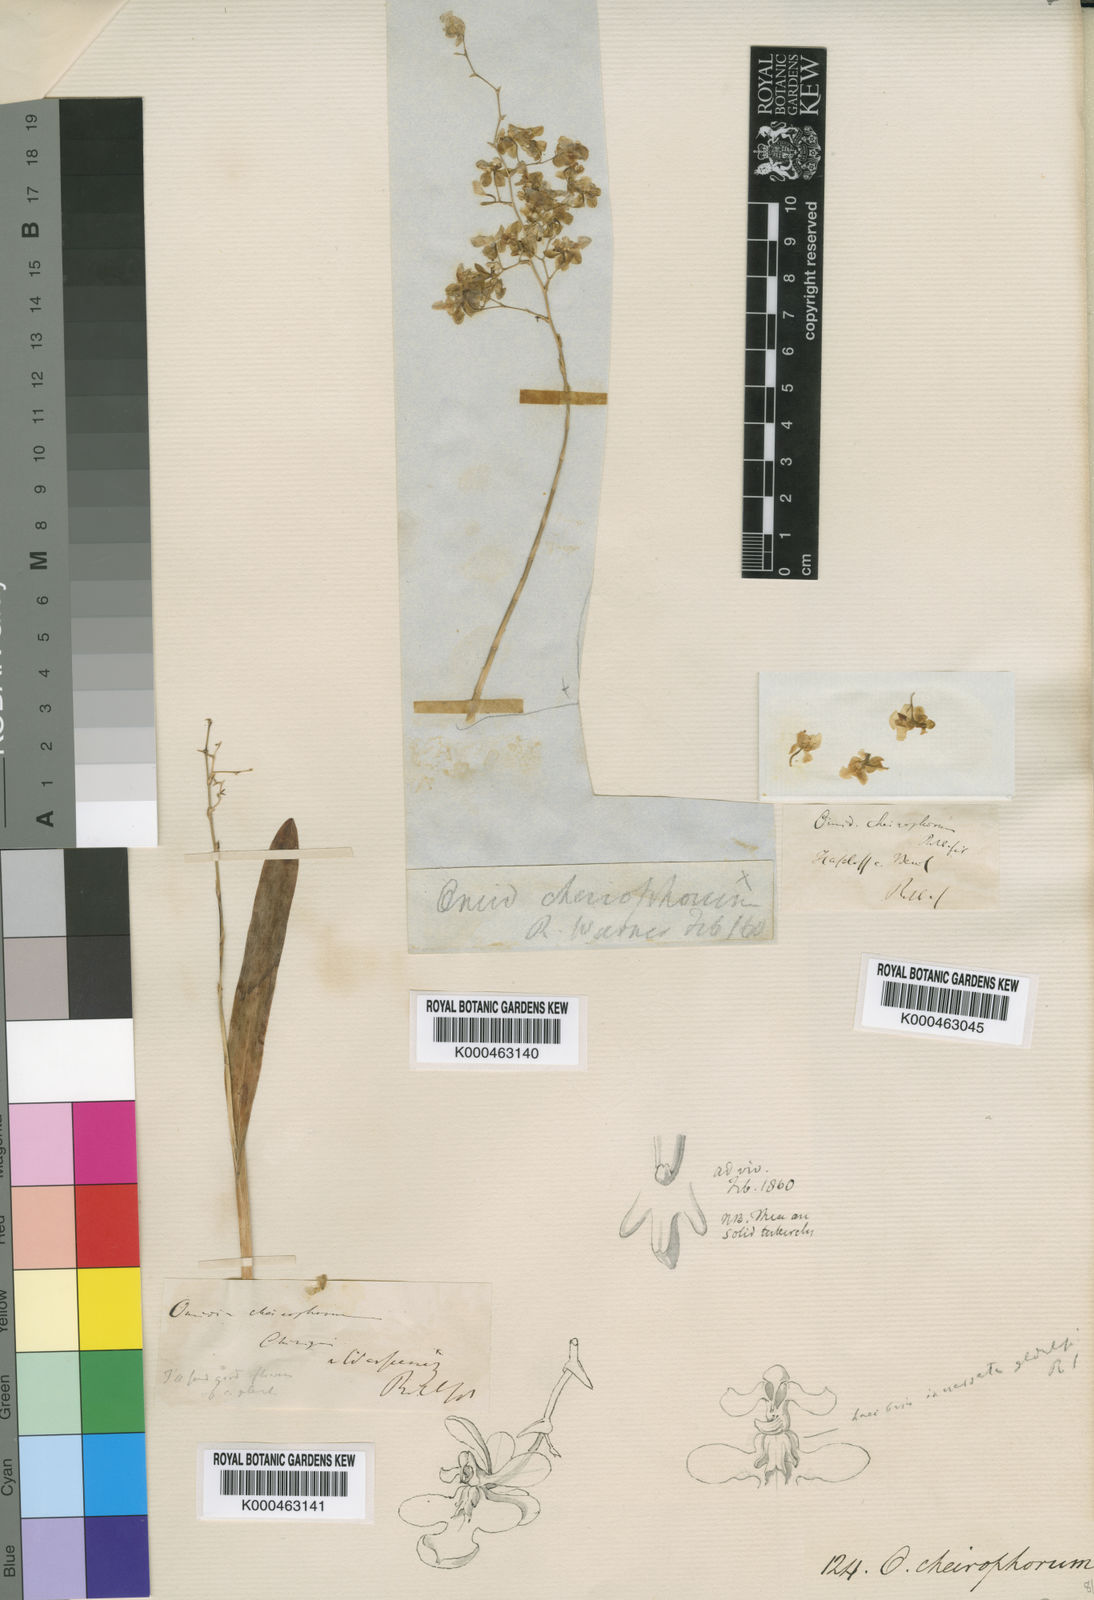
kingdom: Plantae
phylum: Tracheophyta
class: Liliopsida
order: Asparagales
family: Orchidaceae
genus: Oncidium
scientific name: Oncidium cheirophorum
